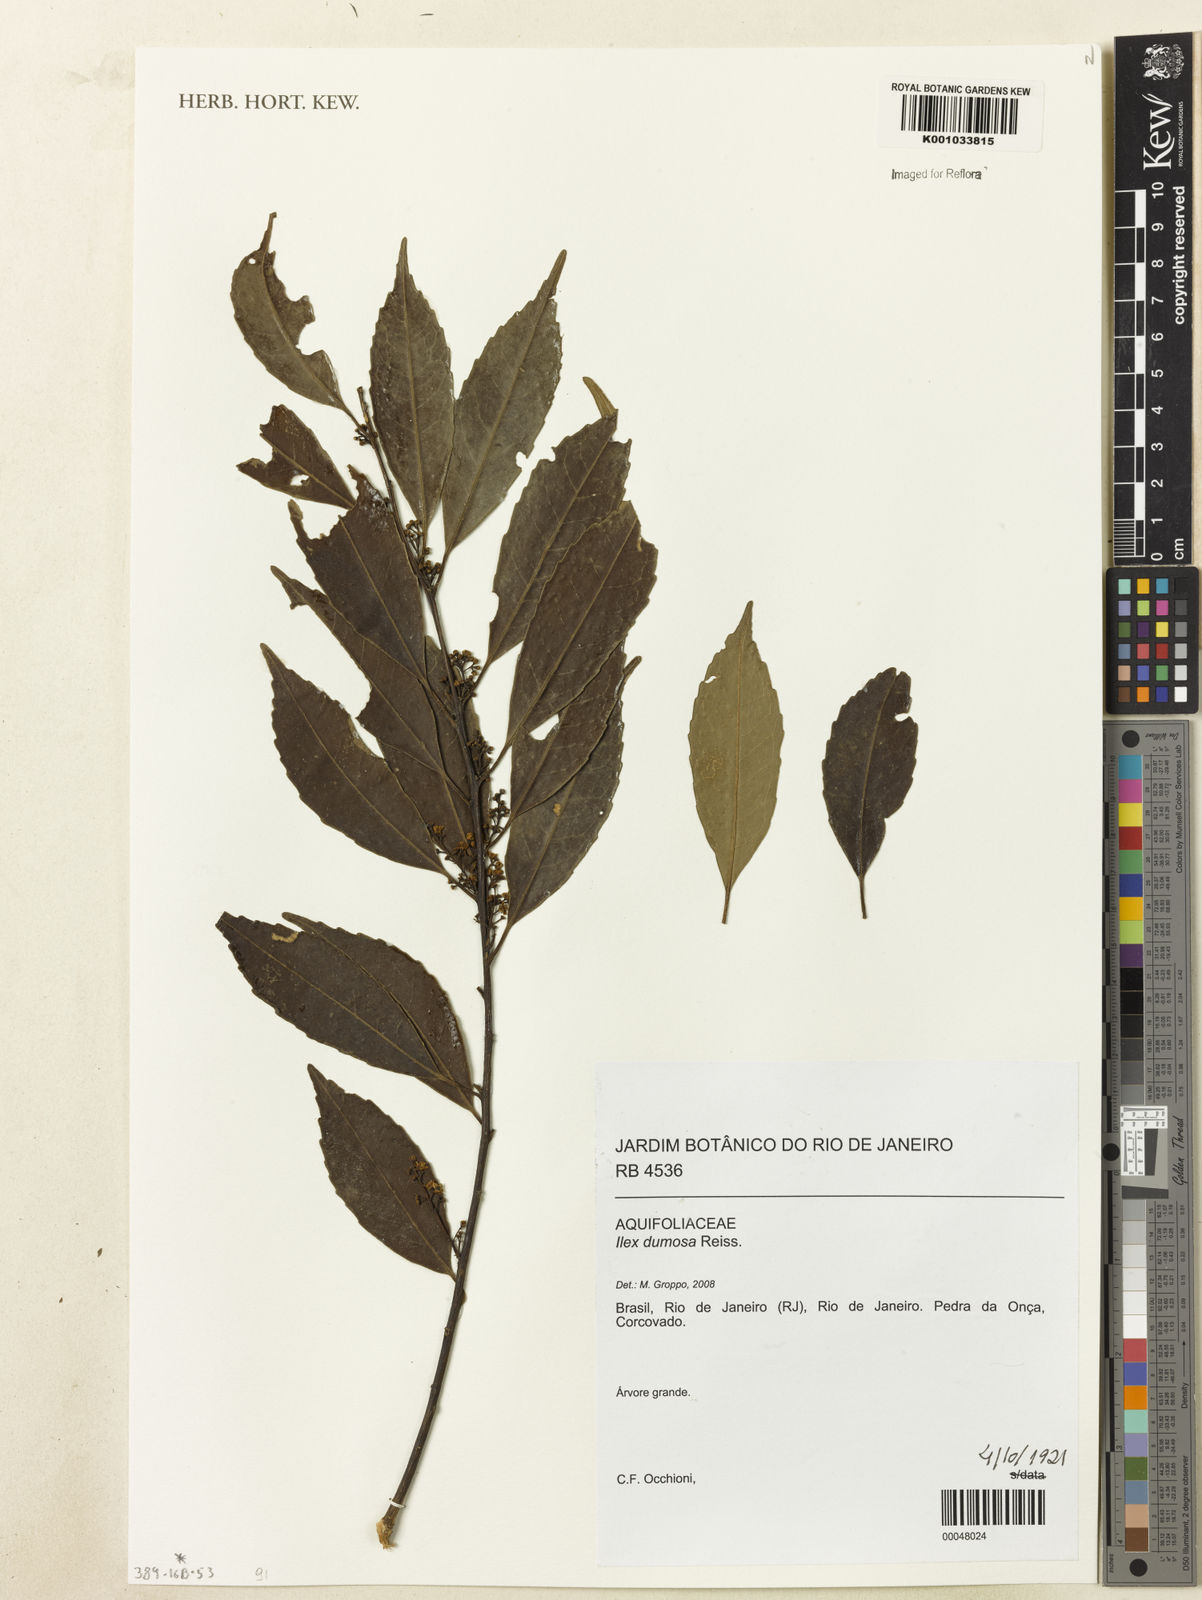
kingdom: Plantae
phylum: Tracheophyta
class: Magnoliopsida
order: Aquifoliales
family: Aquifoliaceae
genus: Ilex
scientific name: Ilex dumosa
